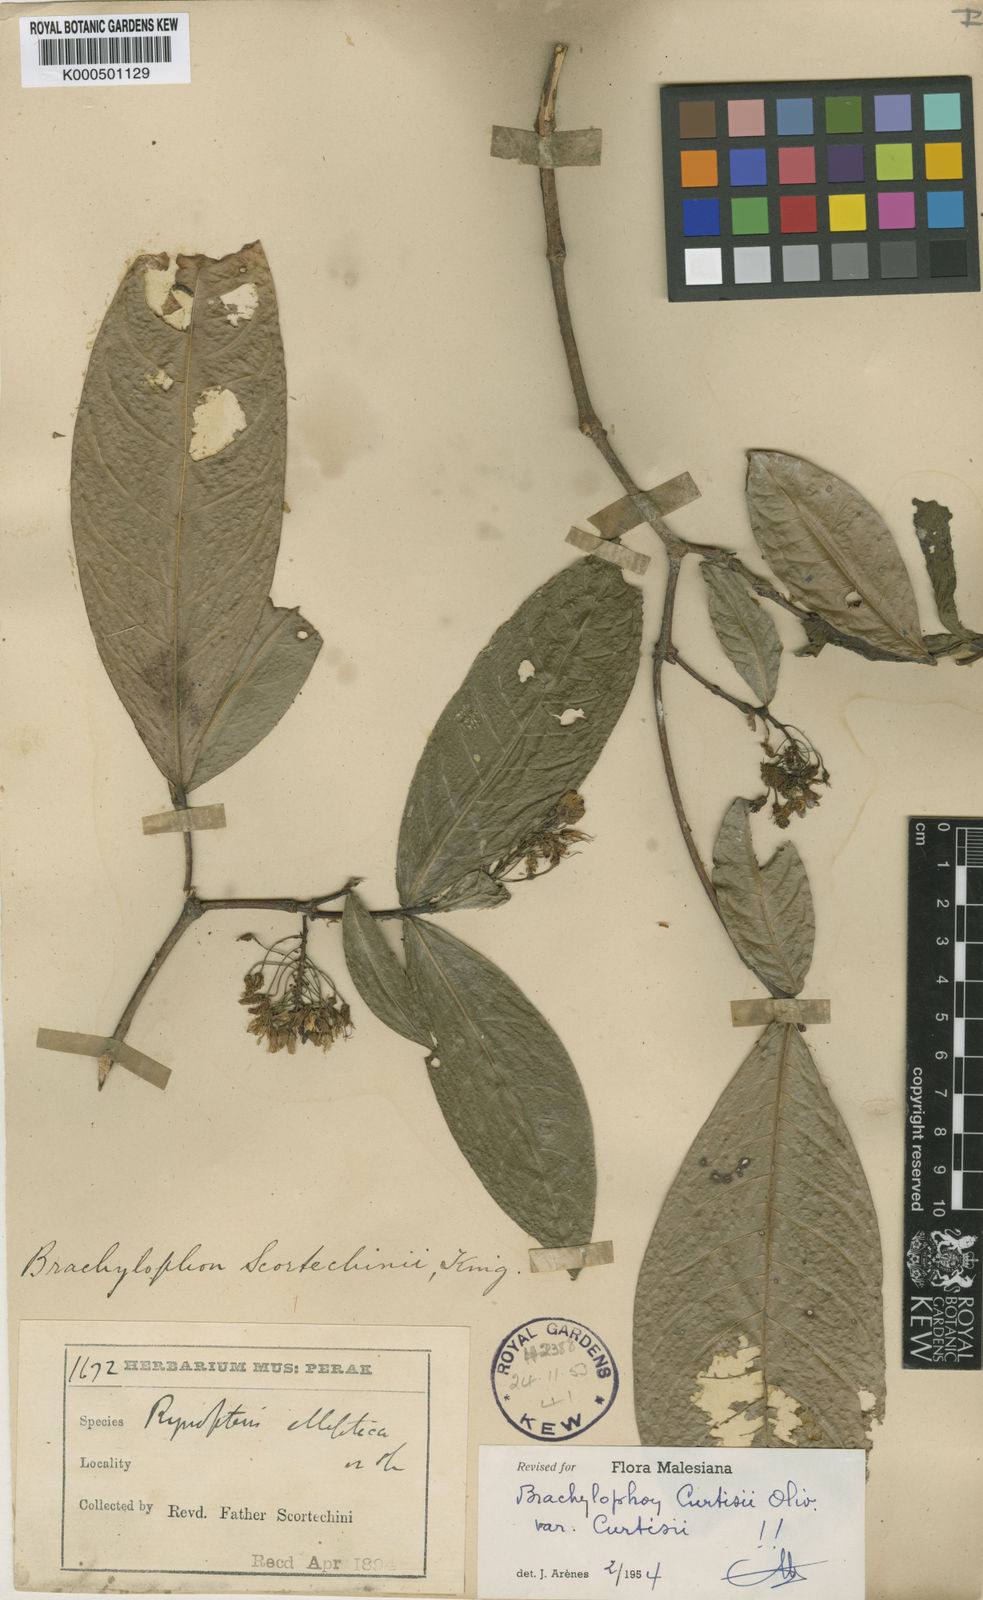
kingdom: Plantae
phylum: Tracheophyta
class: Magnoliopsida
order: Malpighiales
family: Malpighiaceae
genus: Brachylophon
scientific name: Brachylophon curtisii
